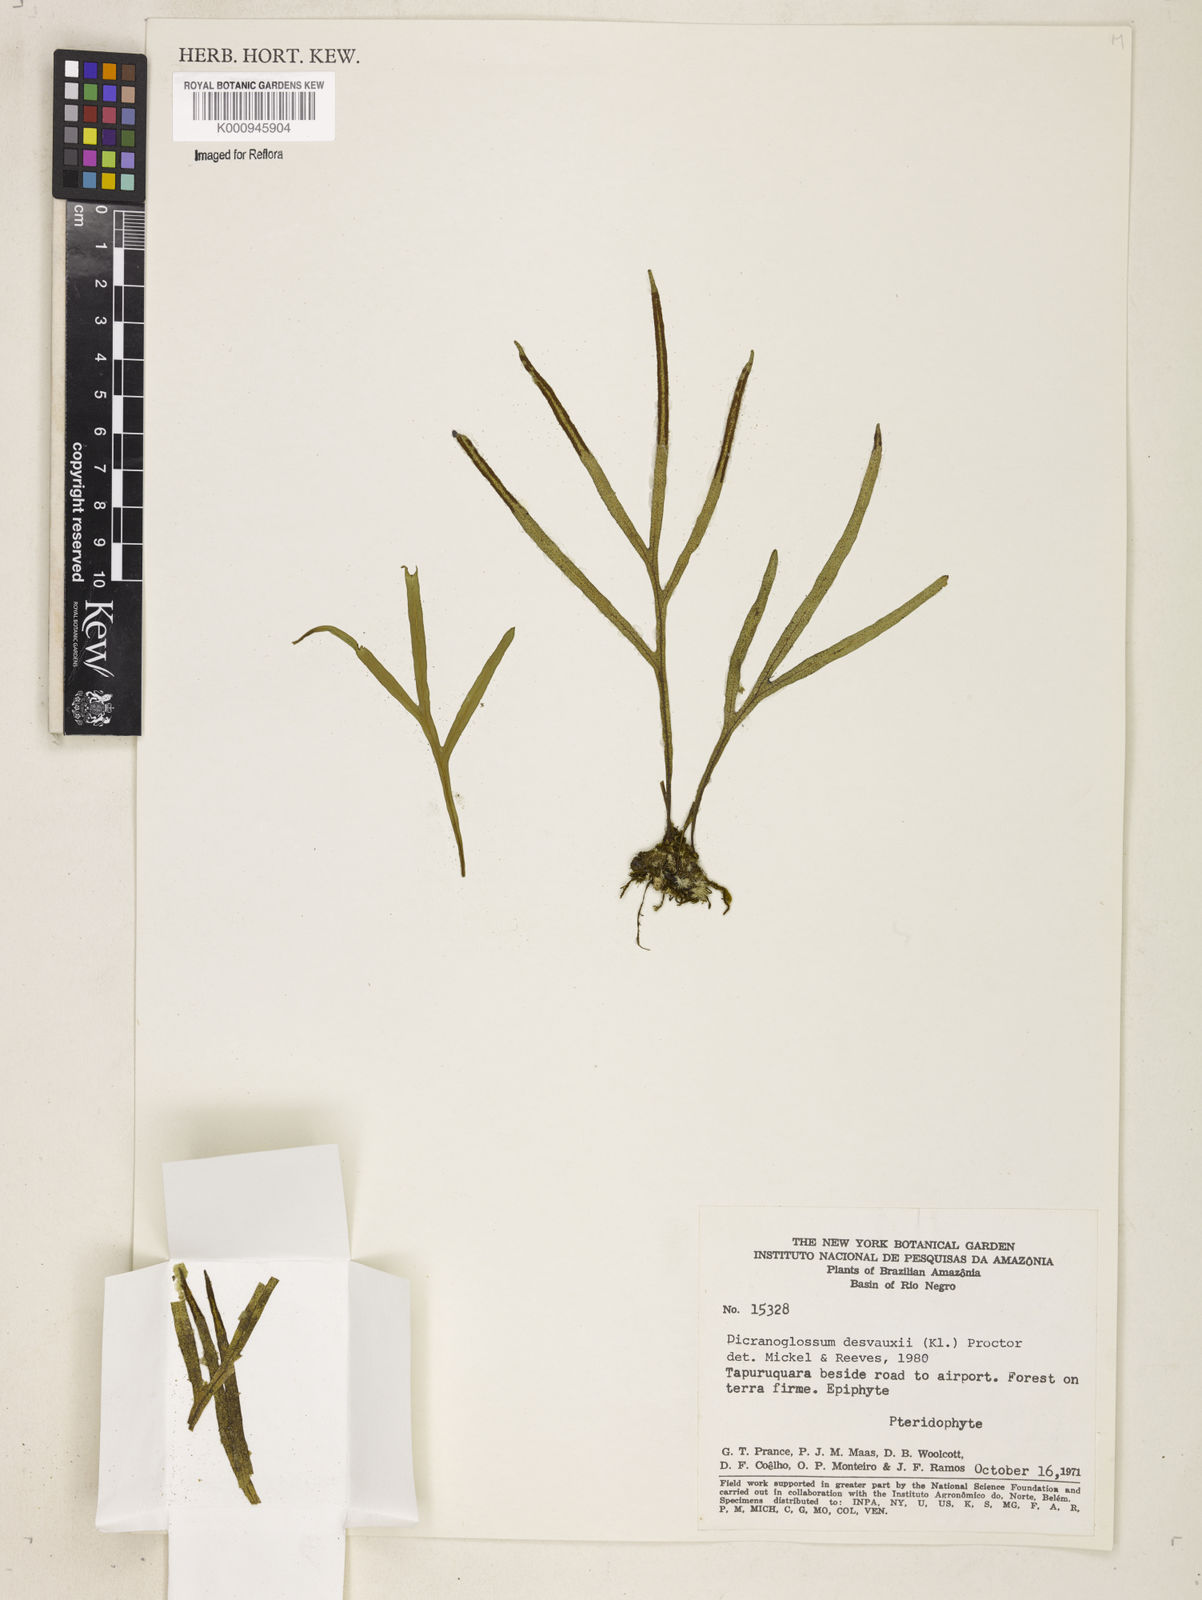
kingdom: Plantae
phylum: Tracheophyta
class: Polypodiopsida
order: Polypodiales
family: Polypodiaceae
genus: Pleopeltis
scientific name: Pleopeltis desvauxii
